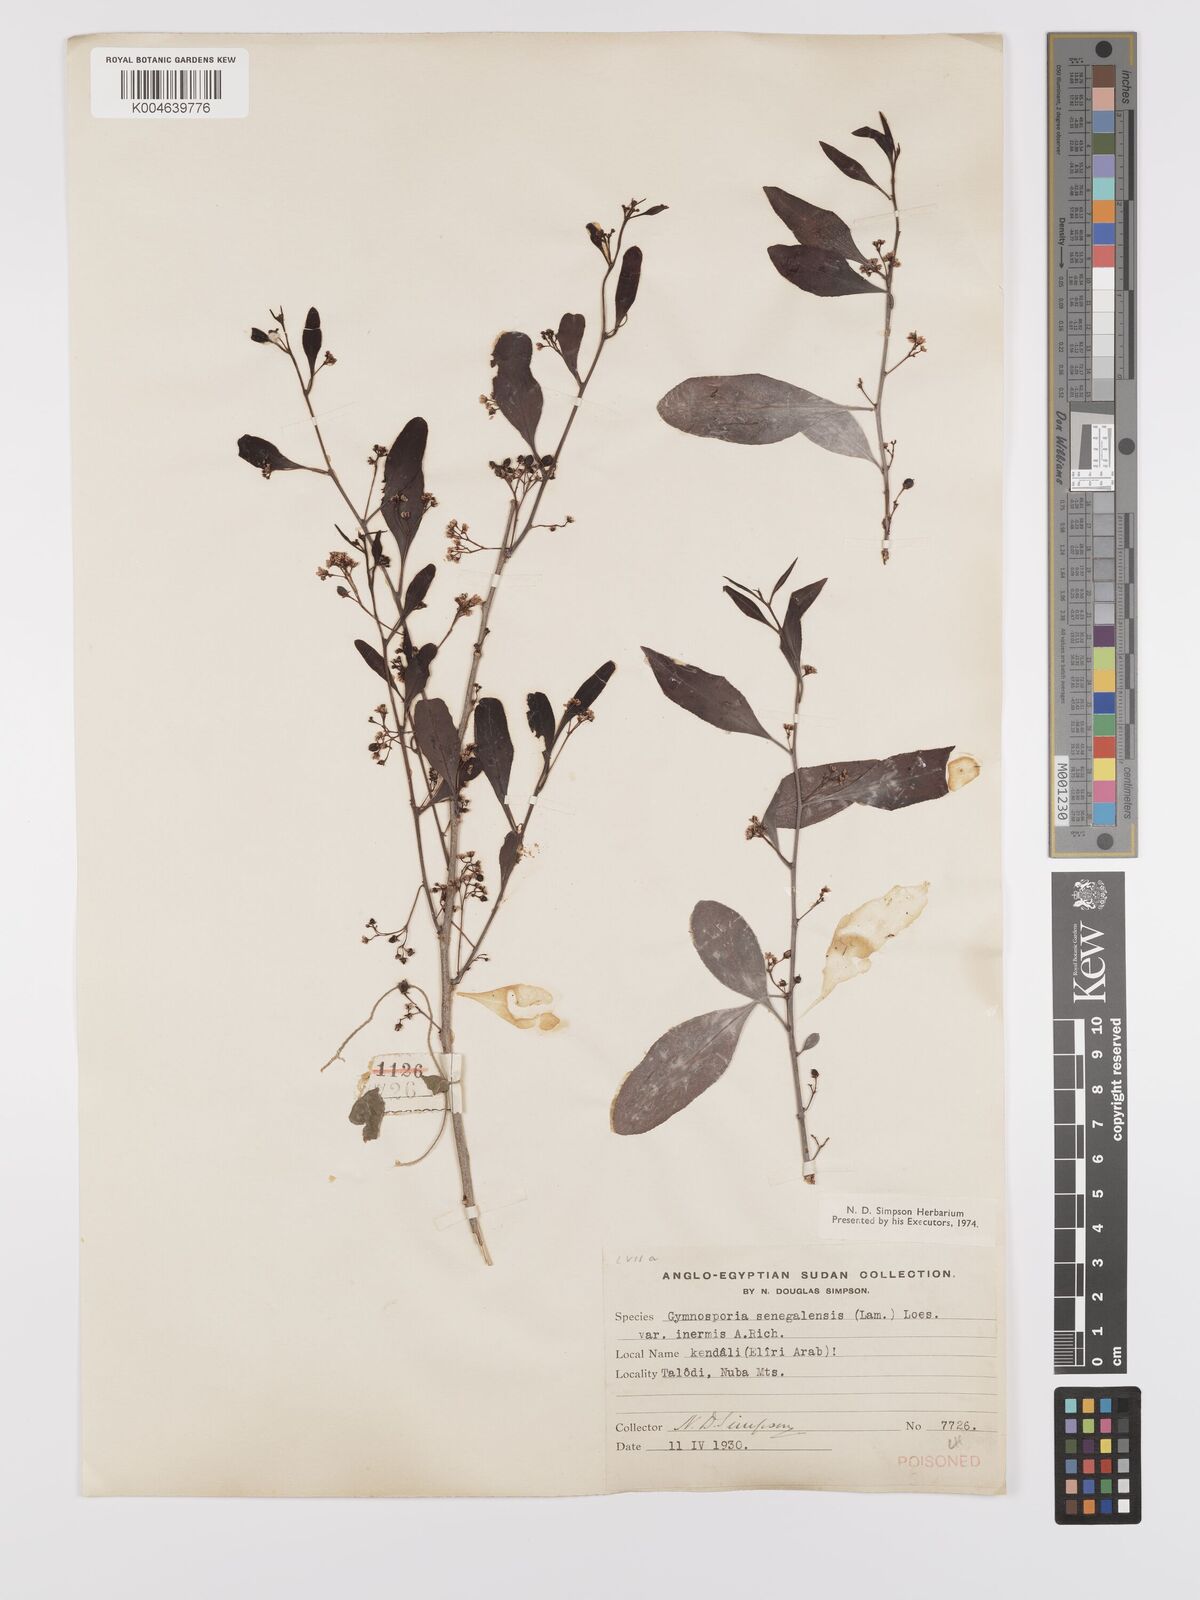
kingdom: Plantae
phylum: Tracheophyta
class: Magnoliopsida
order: Celastrales
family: Celastraceae
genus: Gymnosporia
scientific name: Gymnosporia senegalensis
